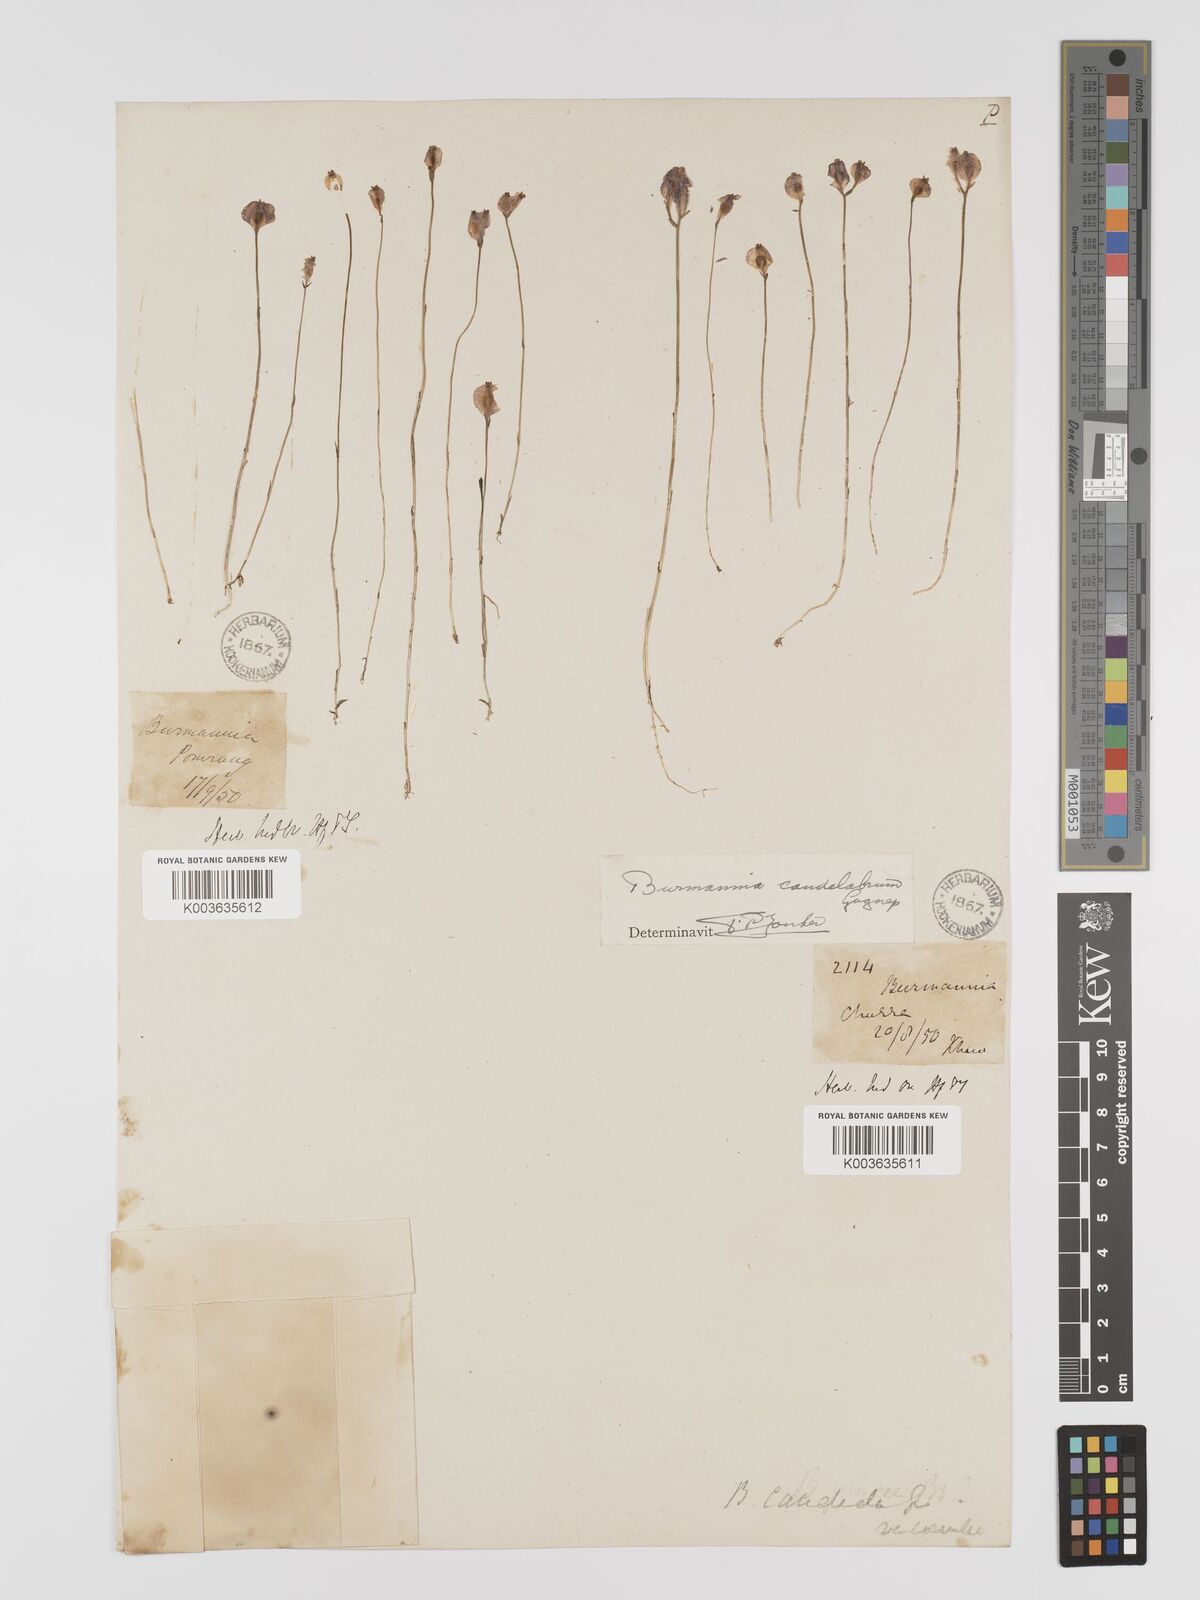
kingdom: Plantae
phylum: Tracheophyta
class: Liliopsida
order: Dioscoreales
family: Burmanniaceae
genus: Burmannia
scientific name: Burmannia candelabrum
